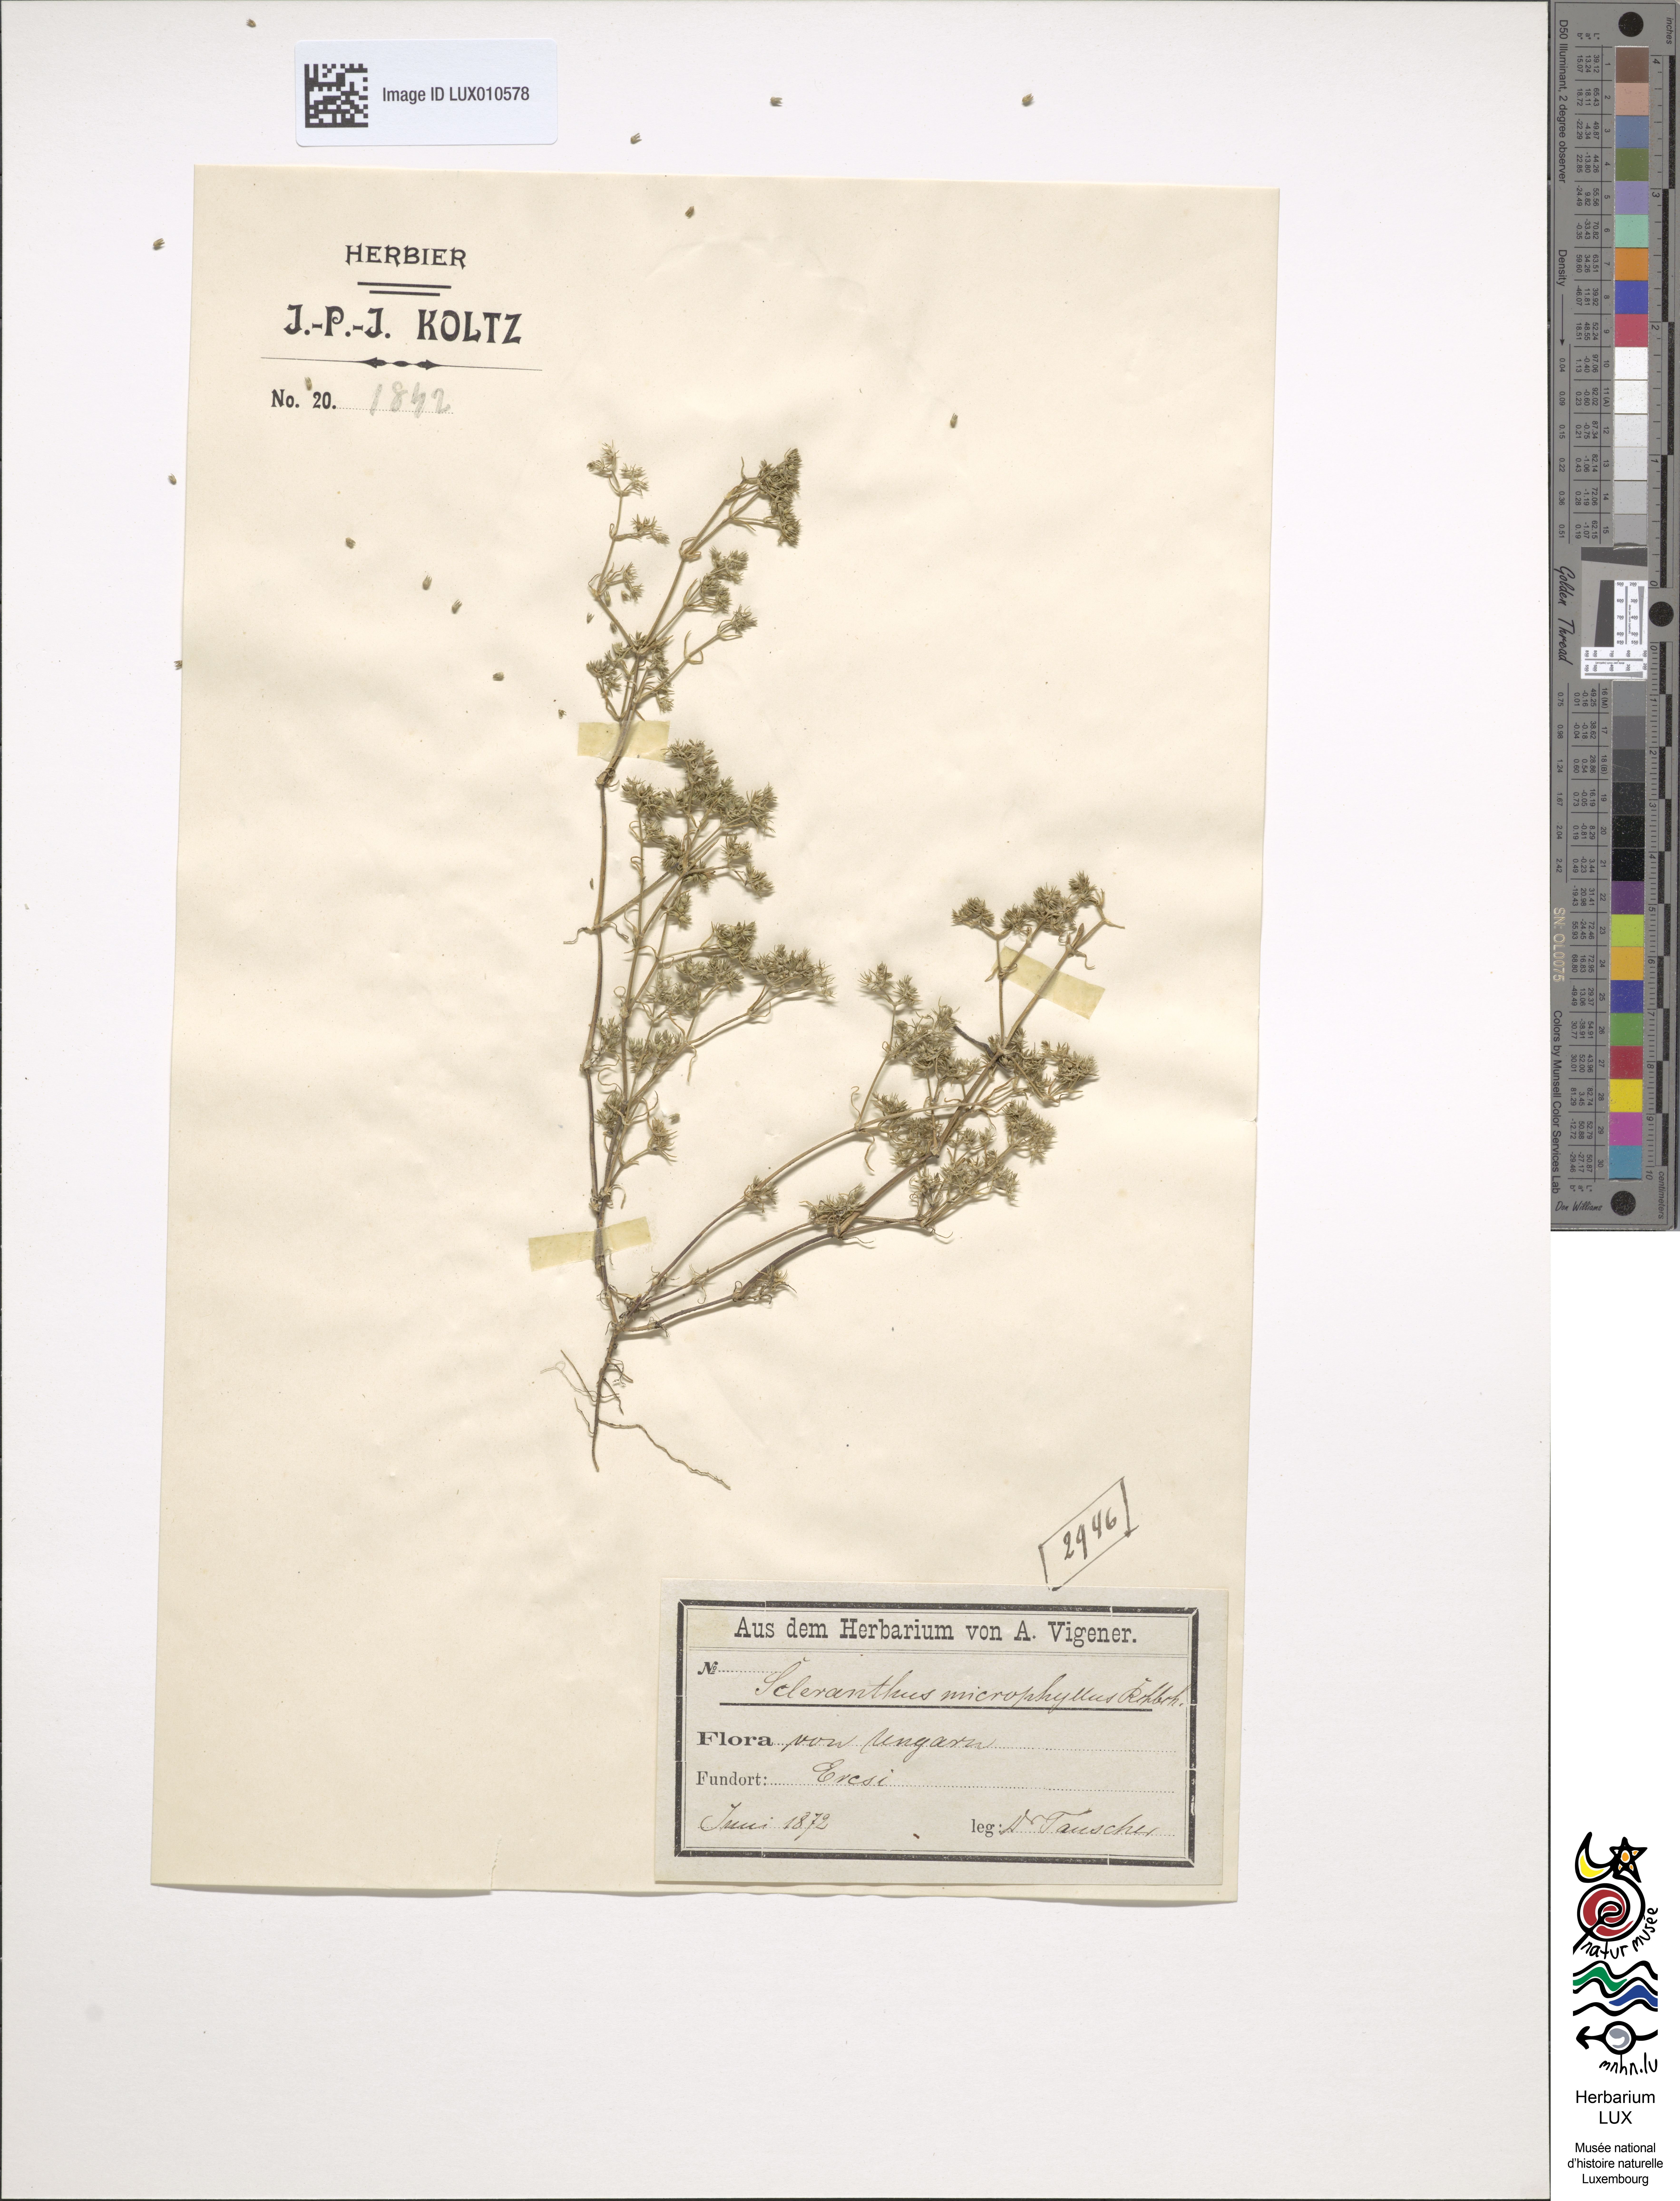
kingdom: Plantae
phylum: Tracheophyta
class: Magnoliopsida
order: Caryophyllales
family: Caryophyllaceae
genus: Scleranthus
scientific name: Scleranthus
